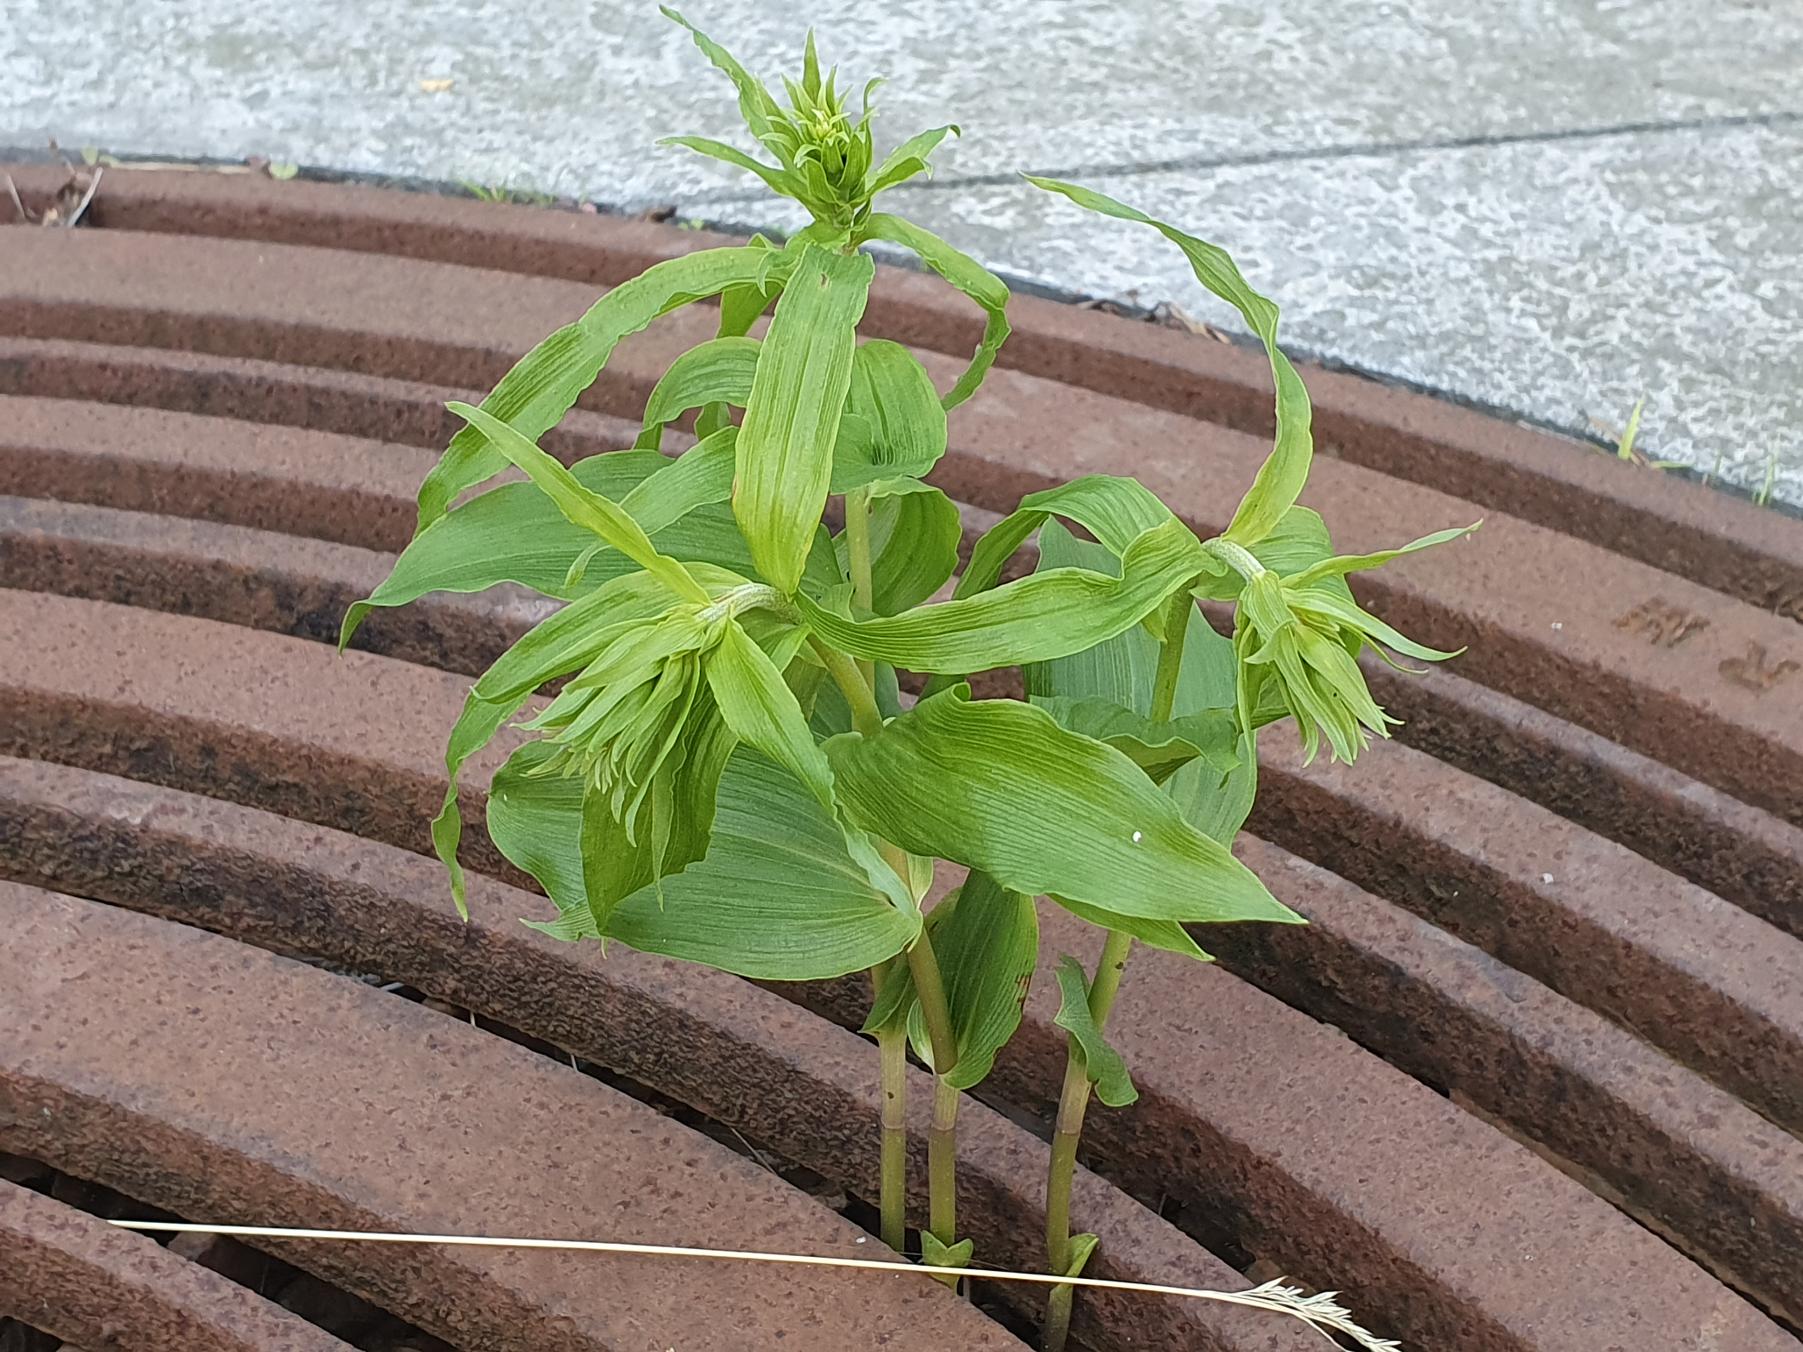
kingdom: Plantae
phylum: Tracheophyta
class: Liliopsida
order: Asparagales
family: Orchidaceae
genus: Epipactis
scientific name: Epipactis helleborine
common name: Skov-hullæbe
